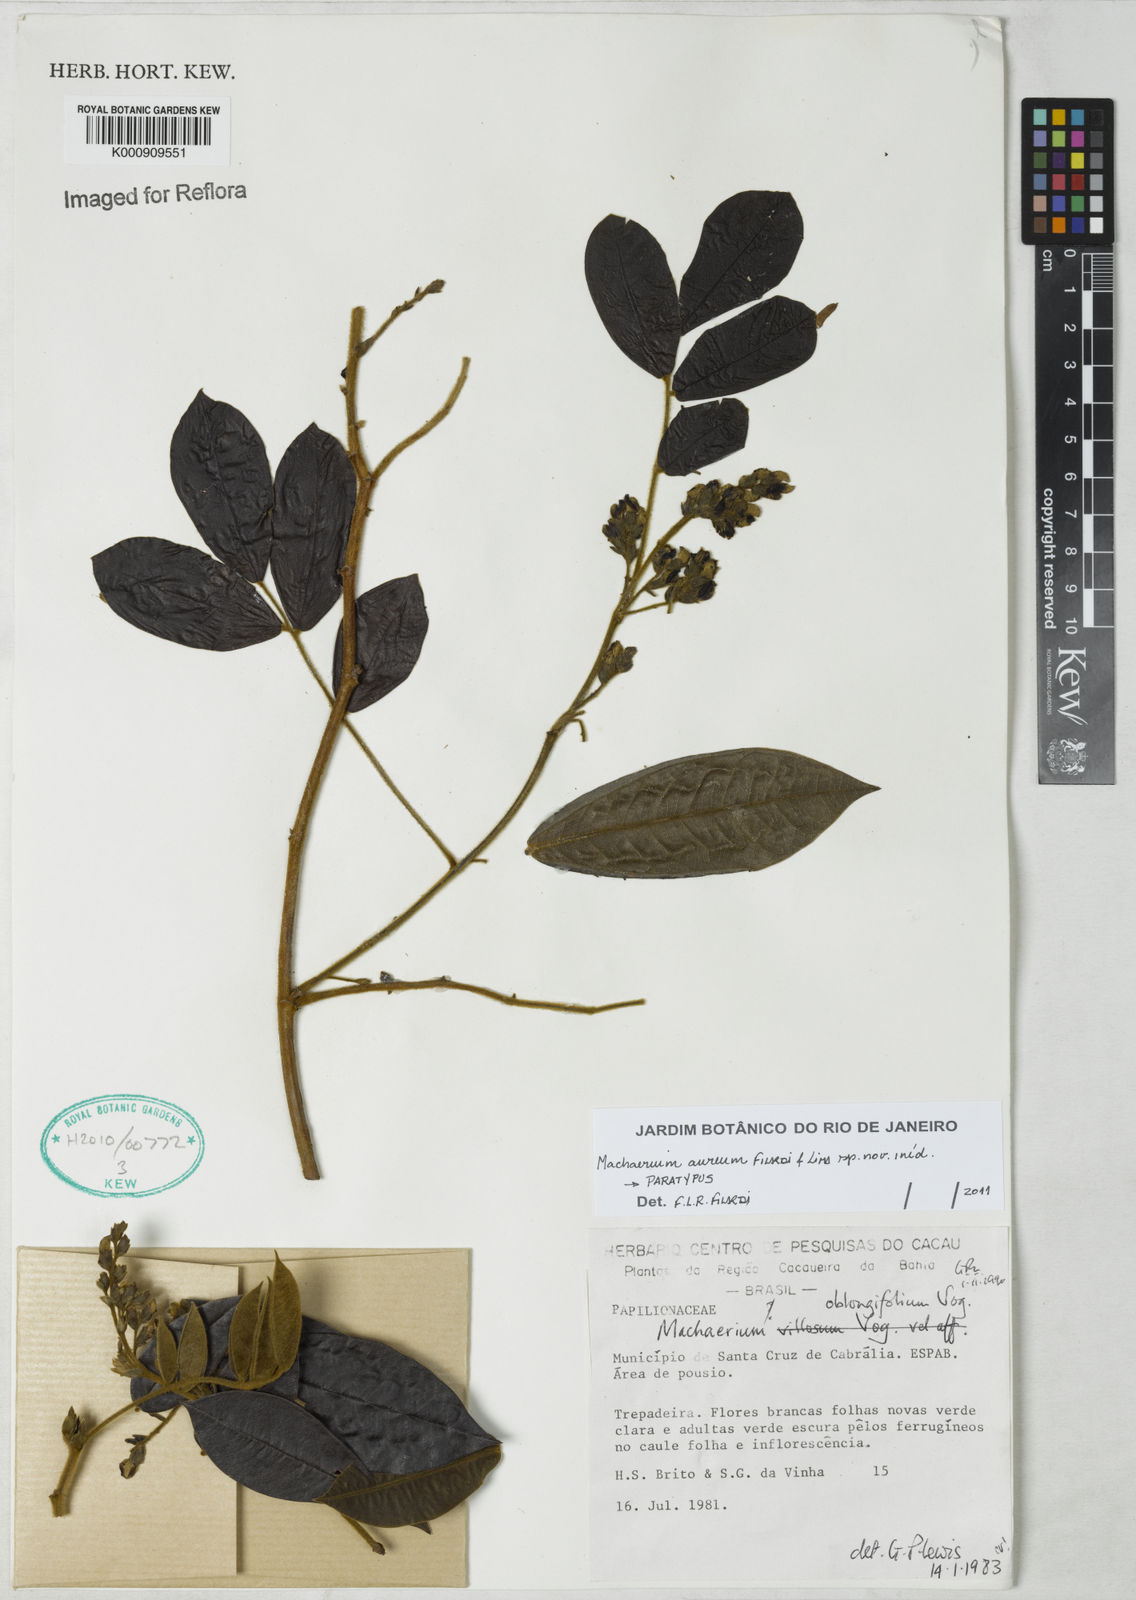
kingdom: Plantae
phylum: Tracheophyta
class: Magnoliopsida
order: Fabales
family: Fabaceae
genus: Machaerium
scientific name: Machaerium aureum
